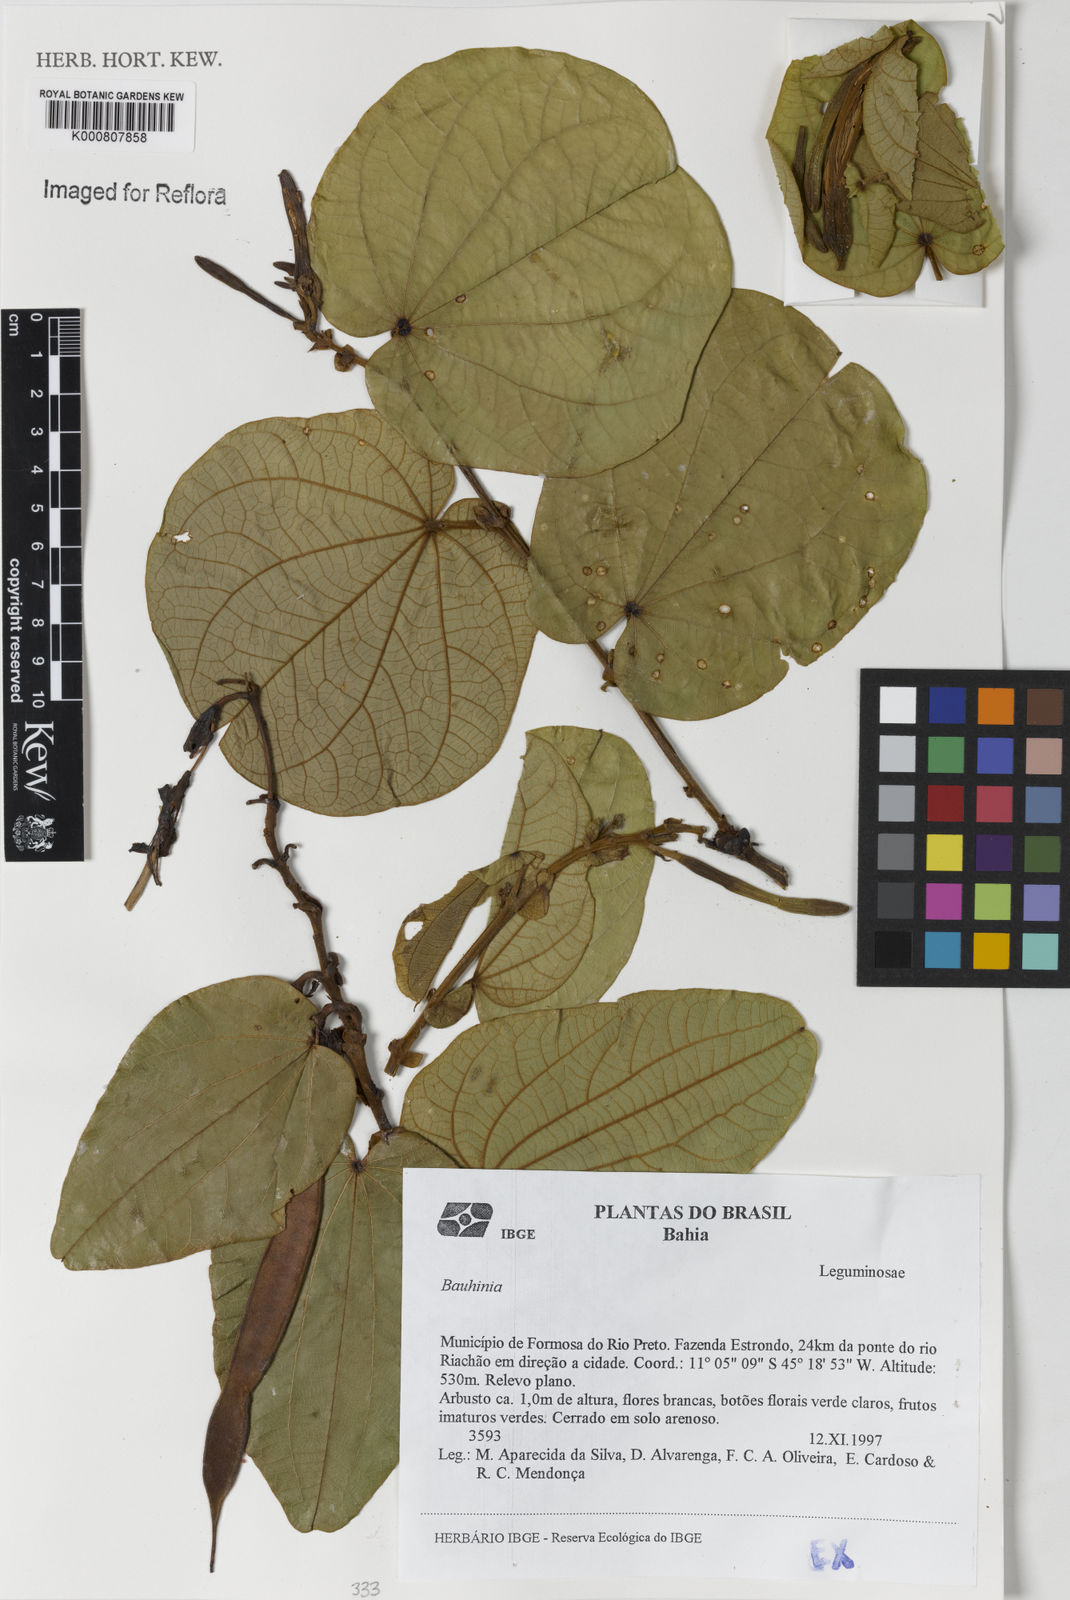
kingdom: Plantae
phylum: Tracheophyta
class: Magnoliopsida
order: Fabales
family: Fabaceae
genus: Bauhinia
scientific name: Bauhinia
